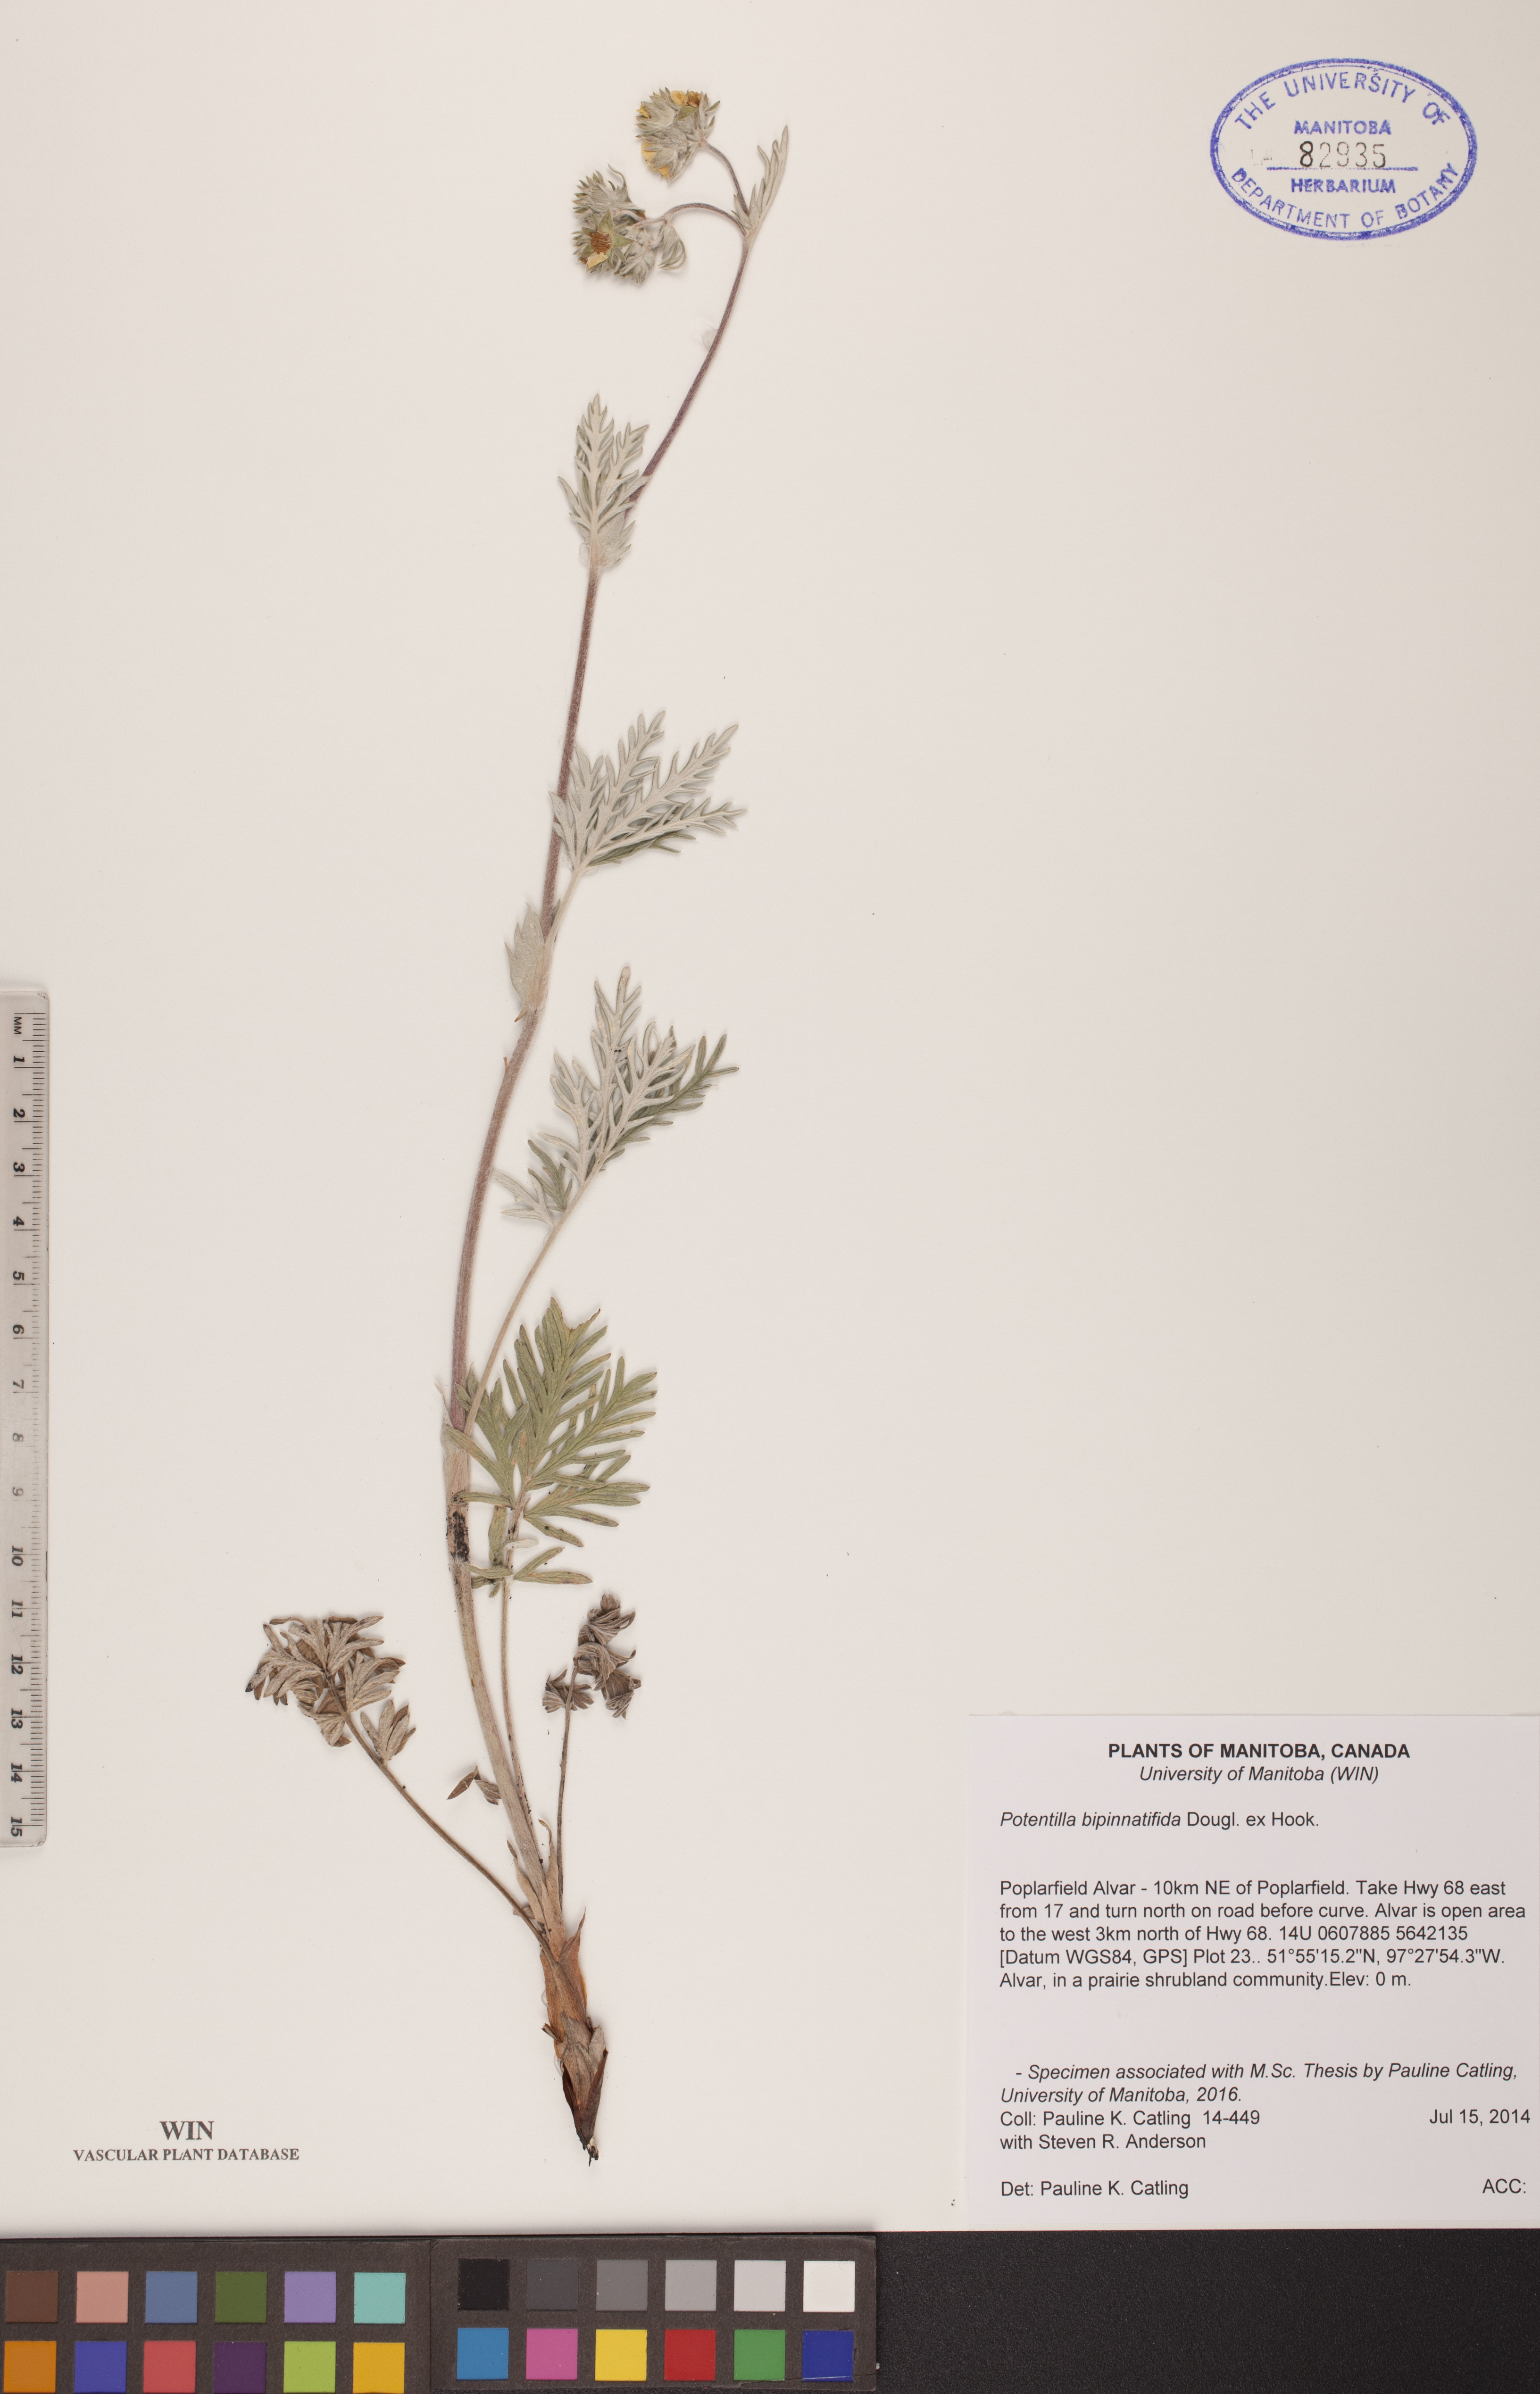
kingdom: Plantae
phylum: Tracheophyta
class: Magnoliopsida
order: Rosales
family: Rosaceae
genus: Potentilla
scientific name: Potentilla bipinnatifida
